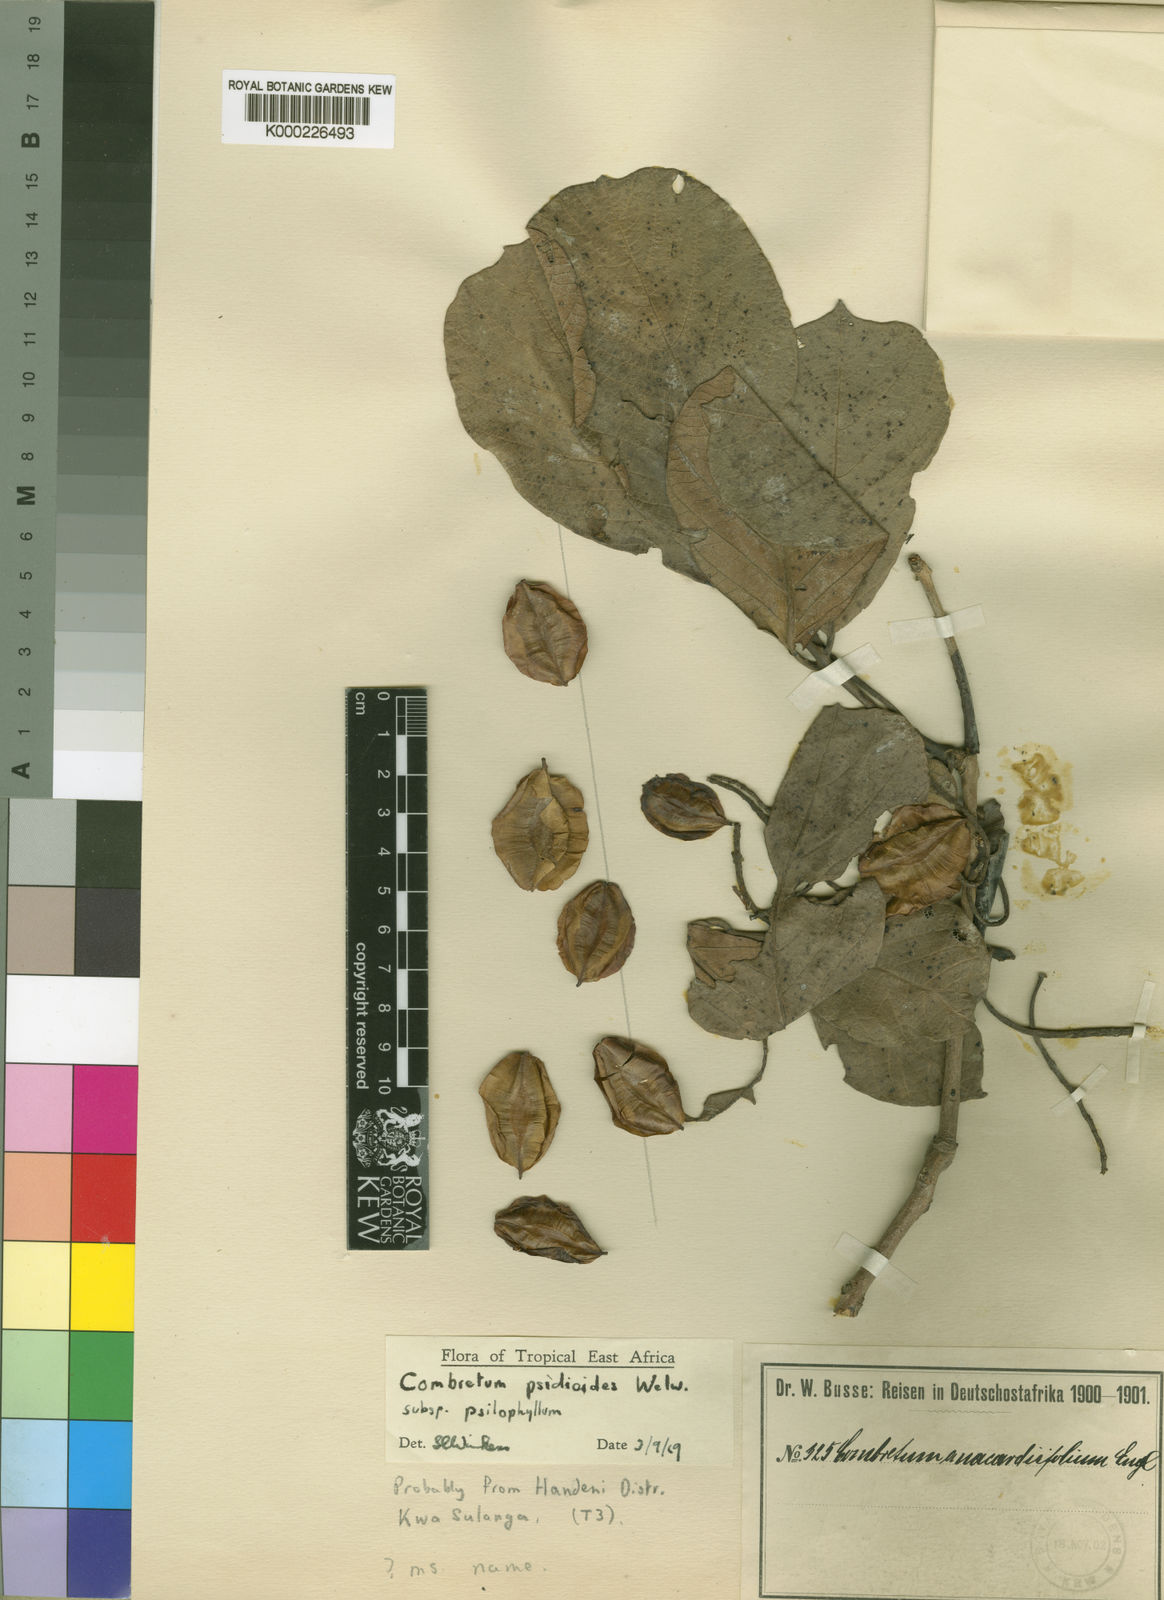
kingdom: Plantae
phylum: Tracheophyta
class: Magnoliopsida
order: Myrtales
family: Combretaceae
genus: Combretum
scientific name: Combretum psidioides
